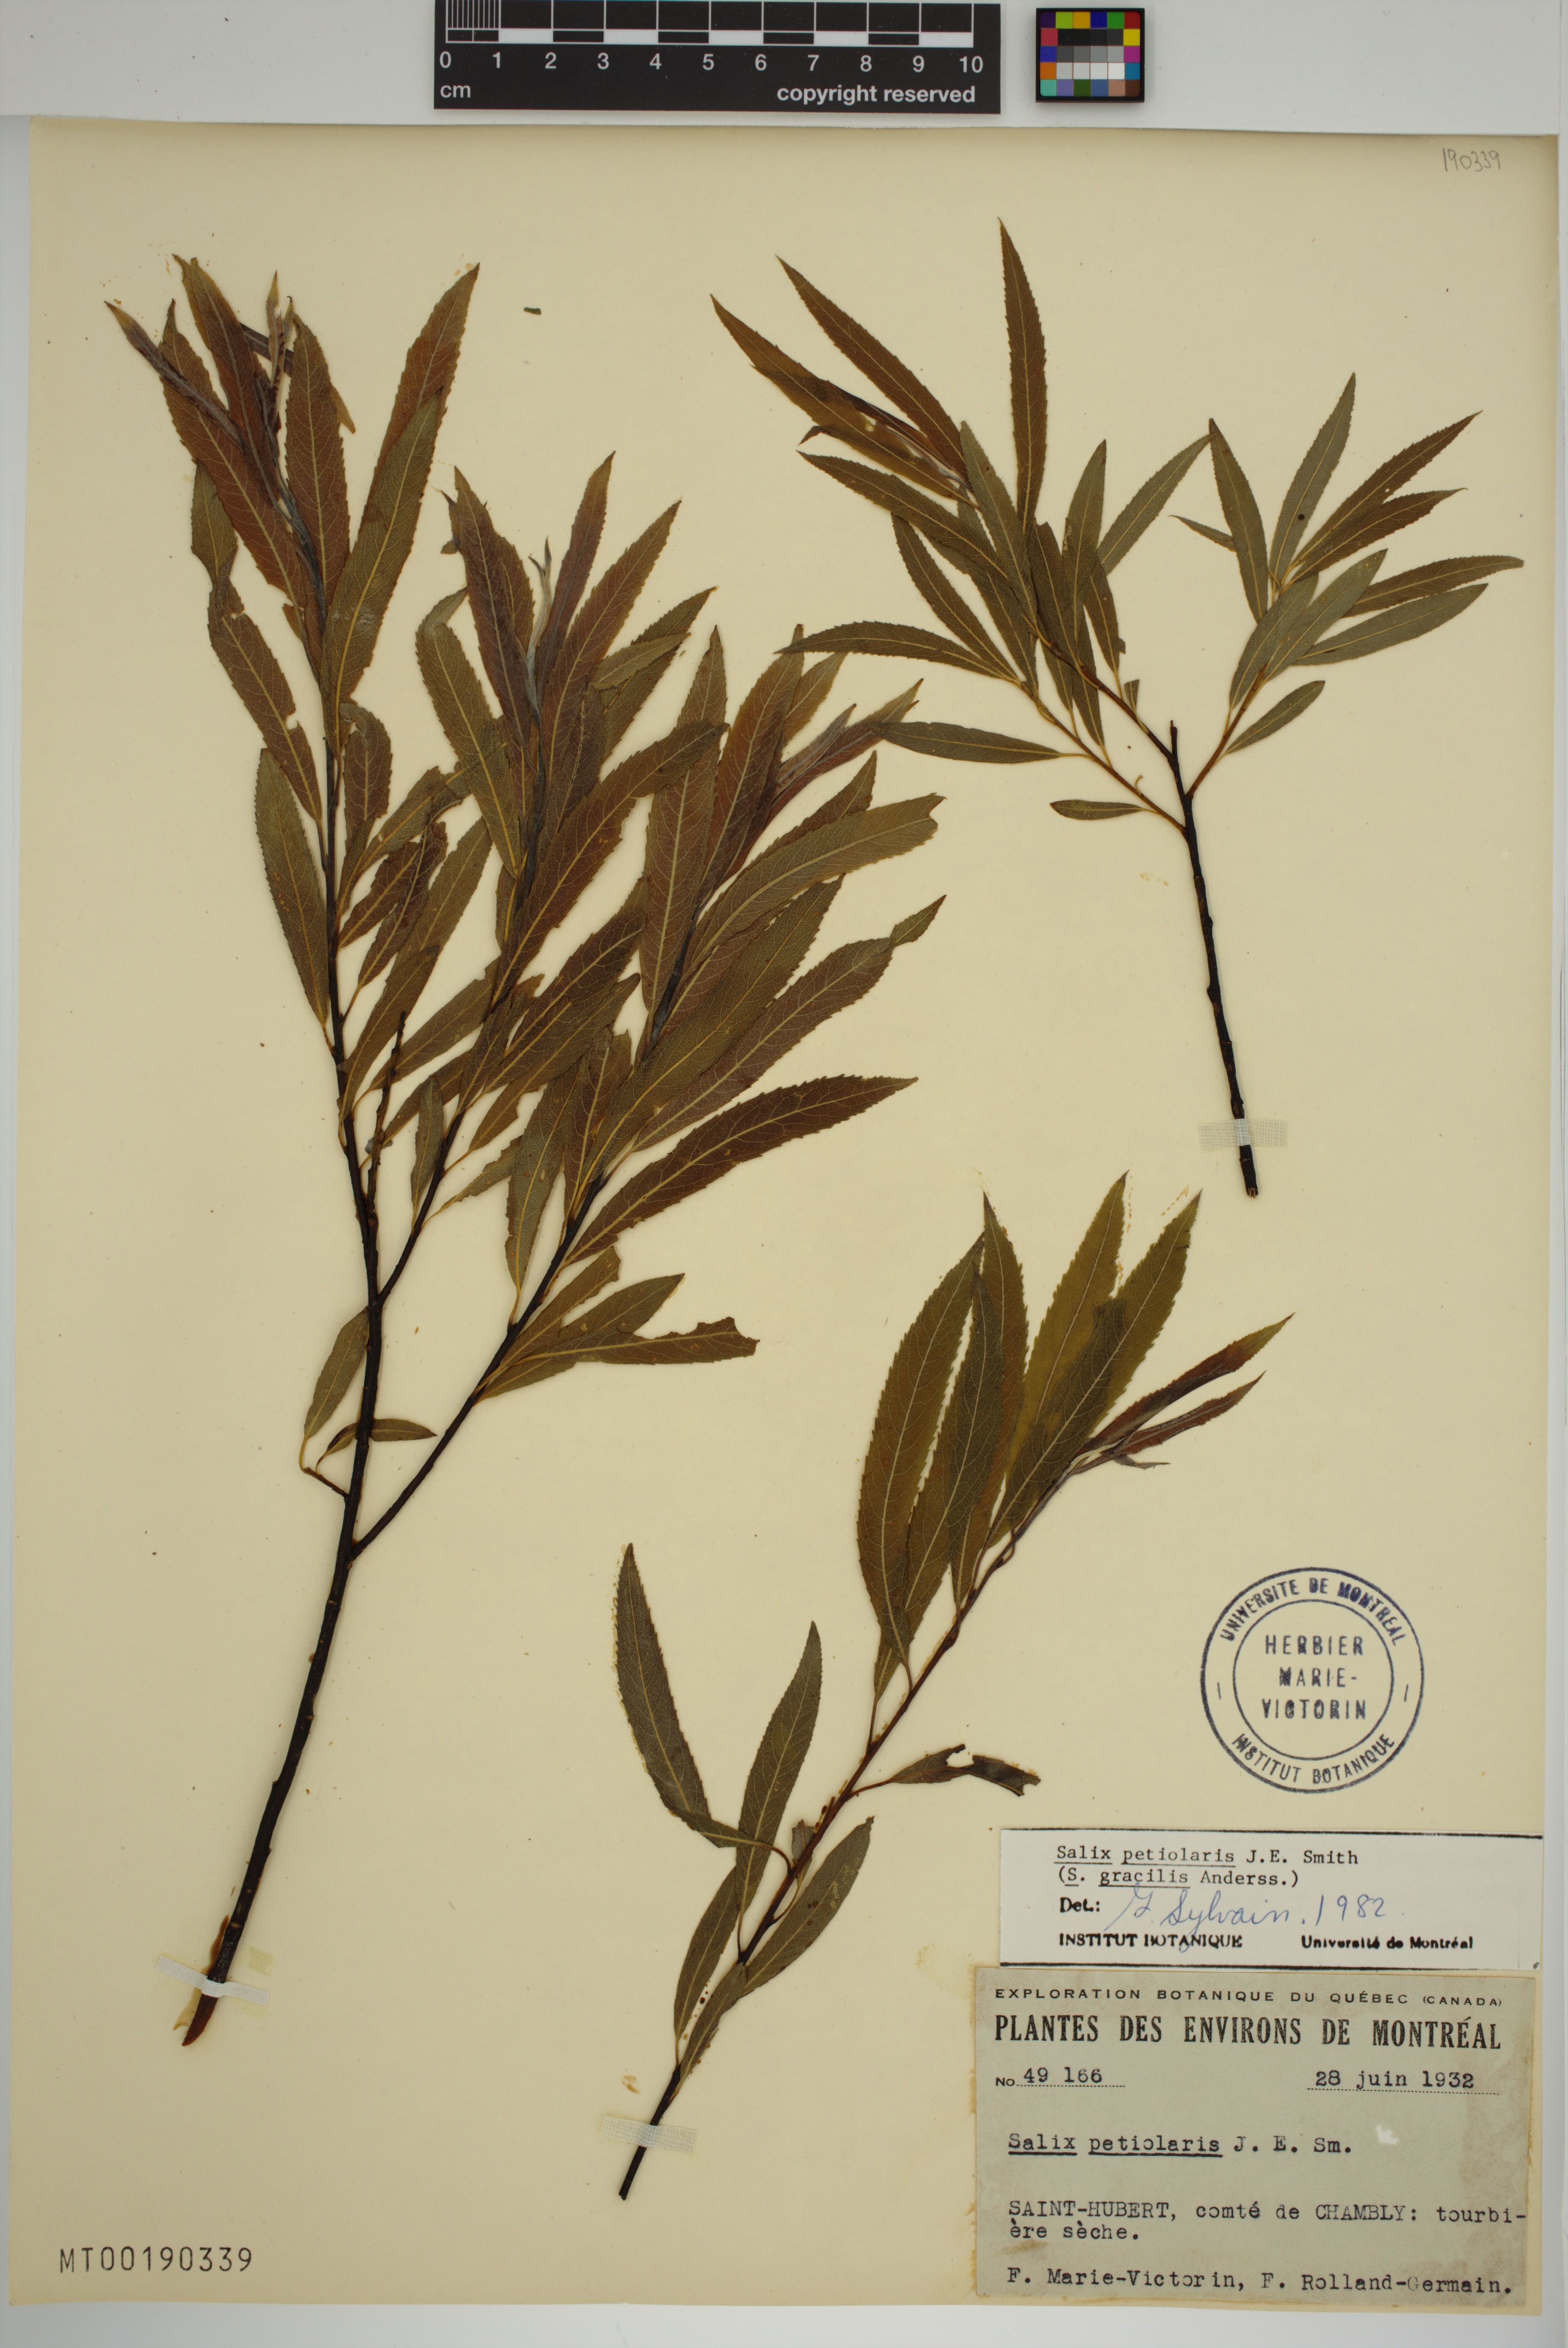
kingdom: Plantae
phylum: Tracheophyta
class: Magnoliopsida
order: Malpighiales
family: Salicaceae
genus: Salix
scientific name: Salix petiolaris
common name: Slender willow
